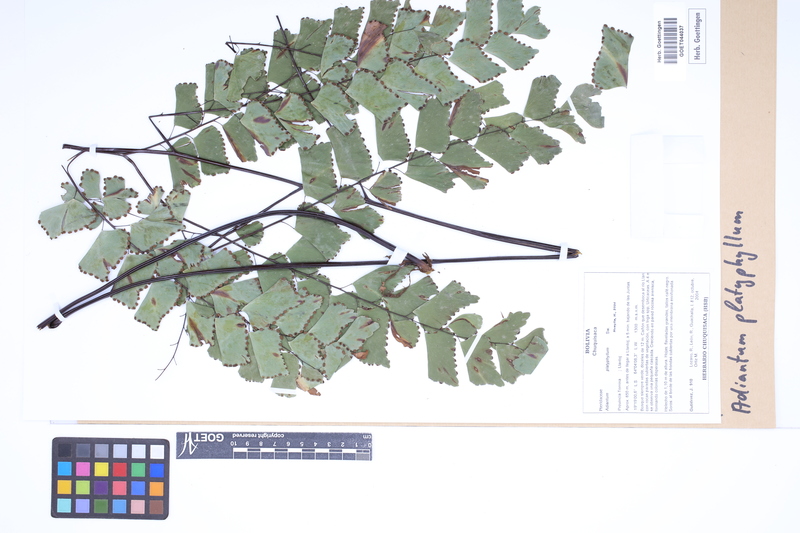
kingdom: Plantae
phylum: Tracheophyta
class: Polypodiopsida
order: Polypodiales
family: Pteridaceae
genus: Adiantum
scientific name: Adiantum platyphyllum
